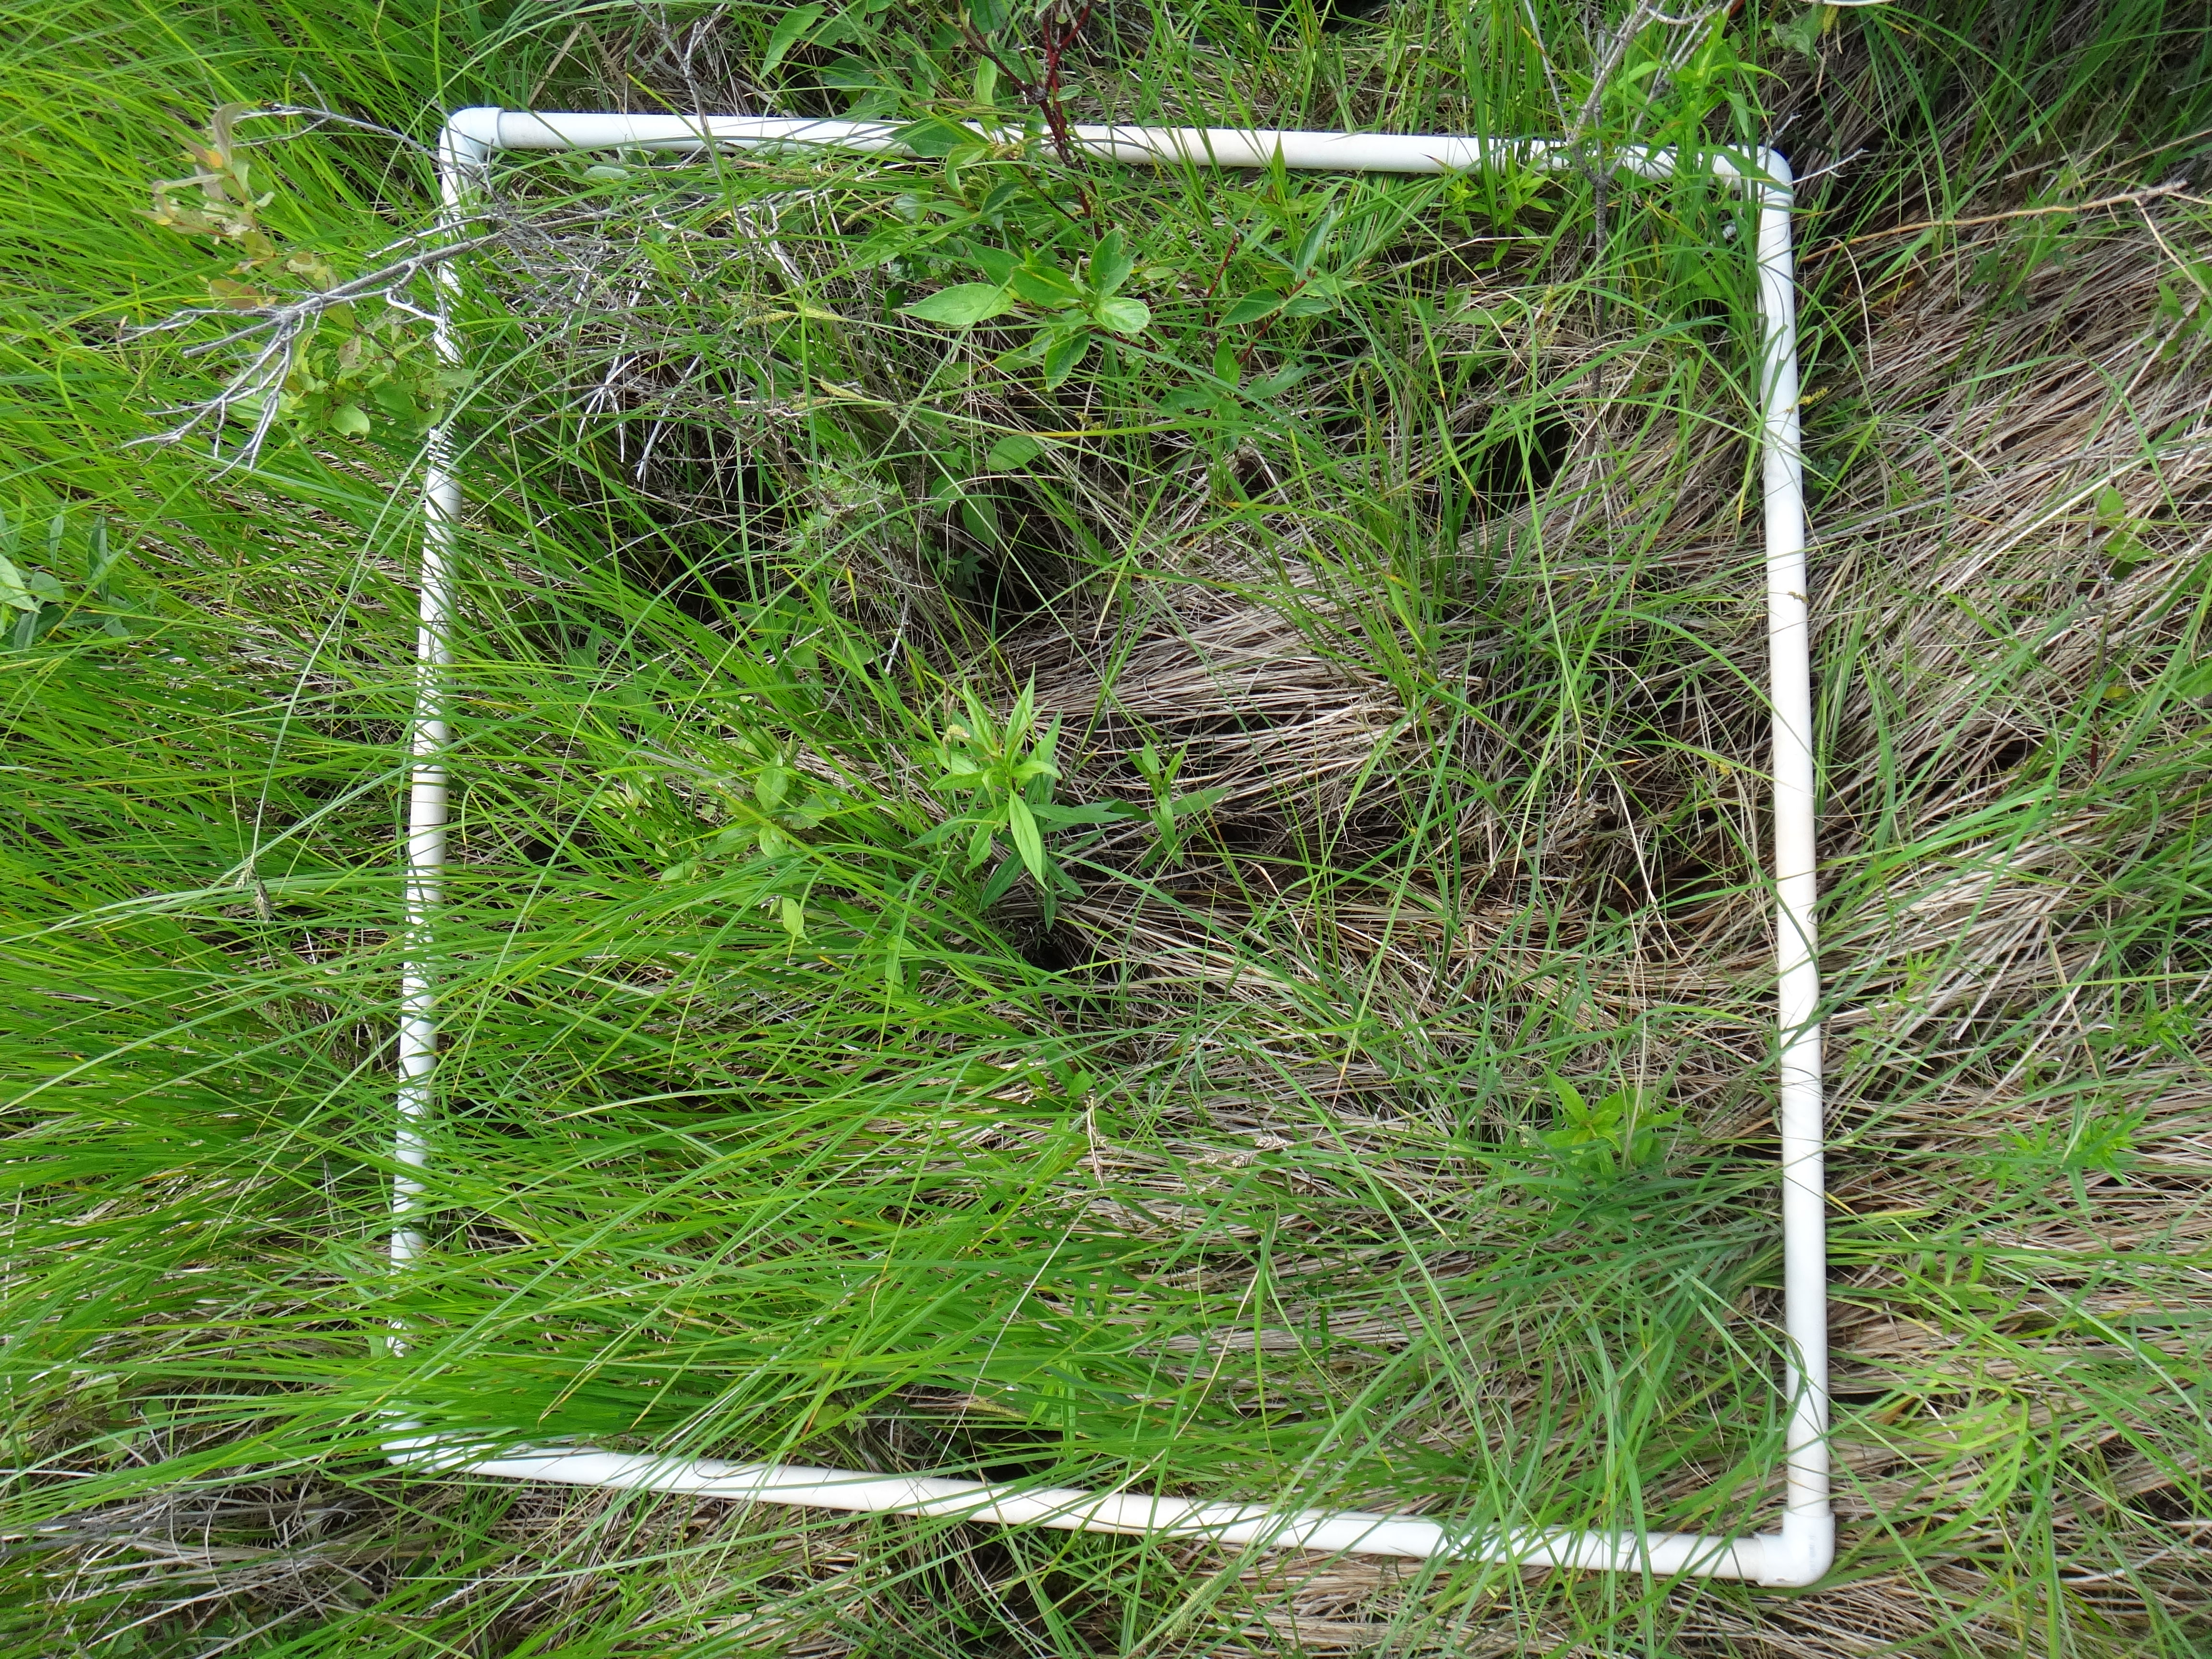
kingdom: Plantae
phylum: Tracheophyta
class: Magnoliopsida
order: Asterales
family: Asteraceae
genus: Symphyotrichum
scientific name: Symphyotrichum puniceum
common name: Bog aster
